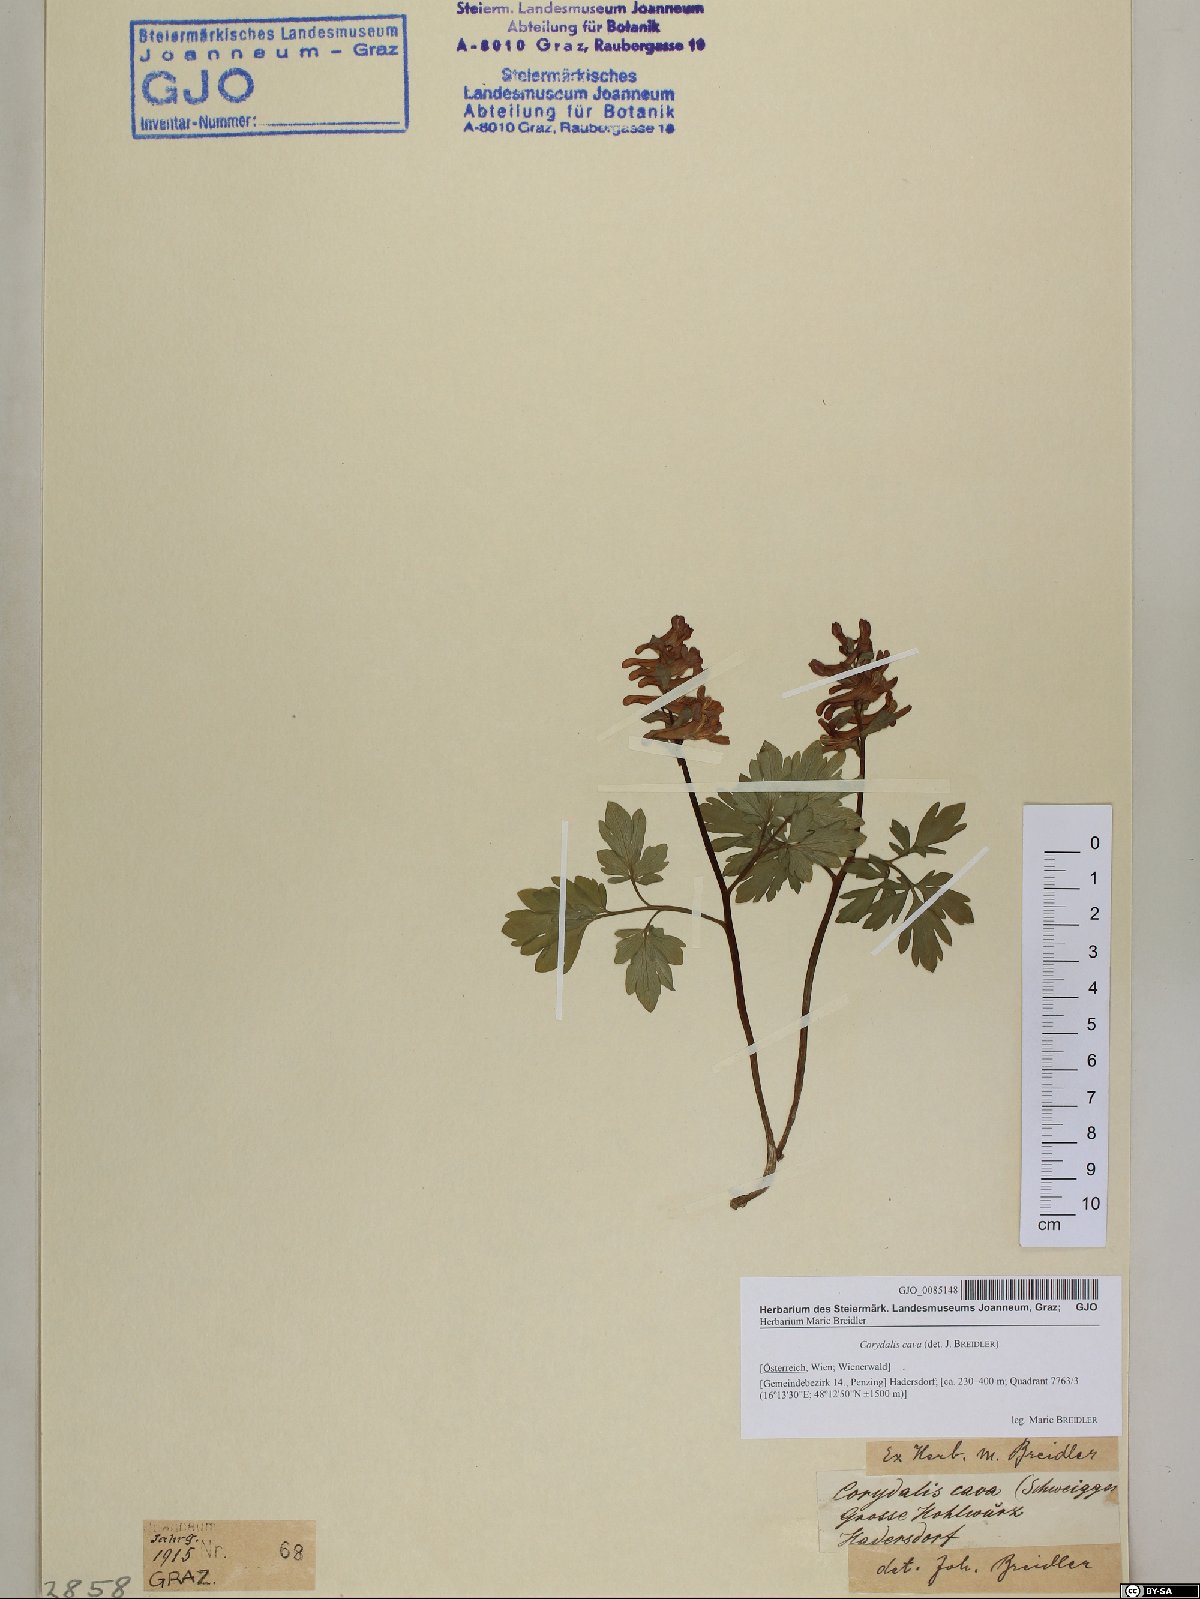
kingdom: Plantae
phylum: Tracheophyta
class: Magnoliopsida
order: Ranunculales
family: Papaveraceae
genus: Corydalis
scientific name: Corydalis cava
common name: Hollowroot
